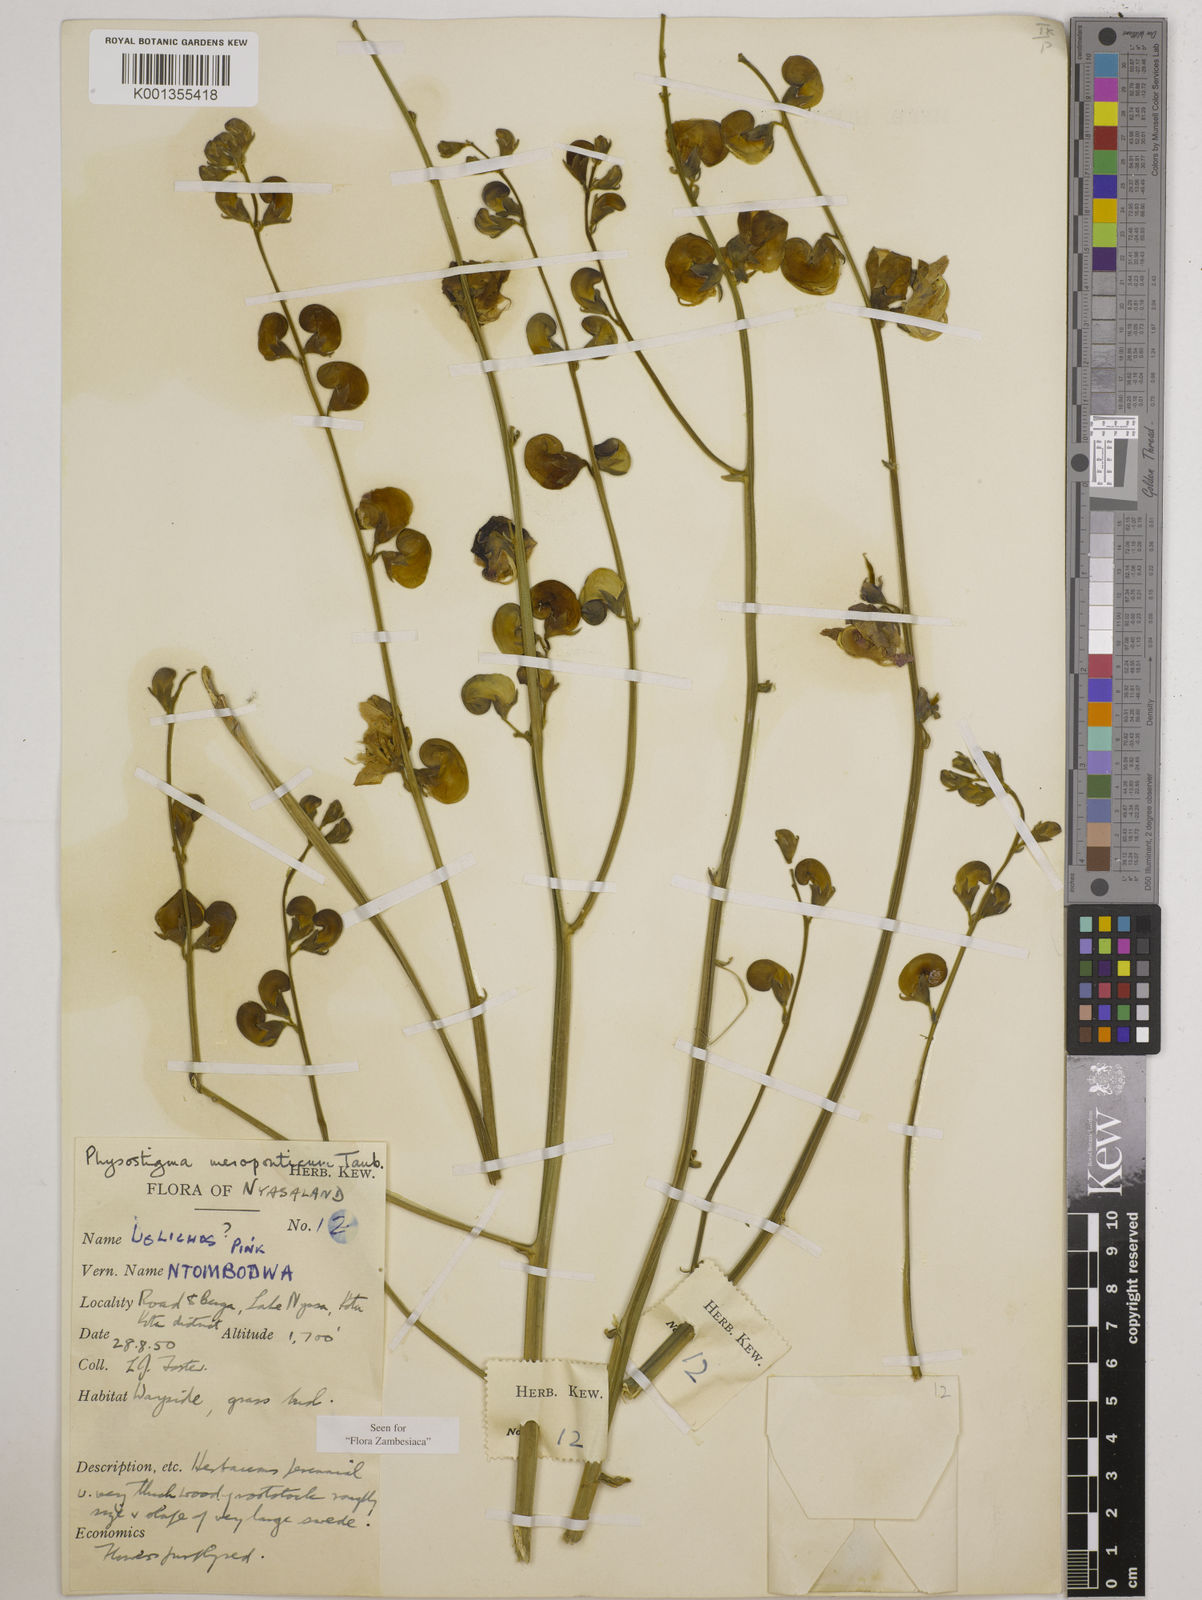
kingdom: Plantae
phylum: Tracheophyta
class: Magnoliopsida
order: Fabales
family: Fabaceae
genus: Physostigma
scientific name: Physostigma mesoponticum
